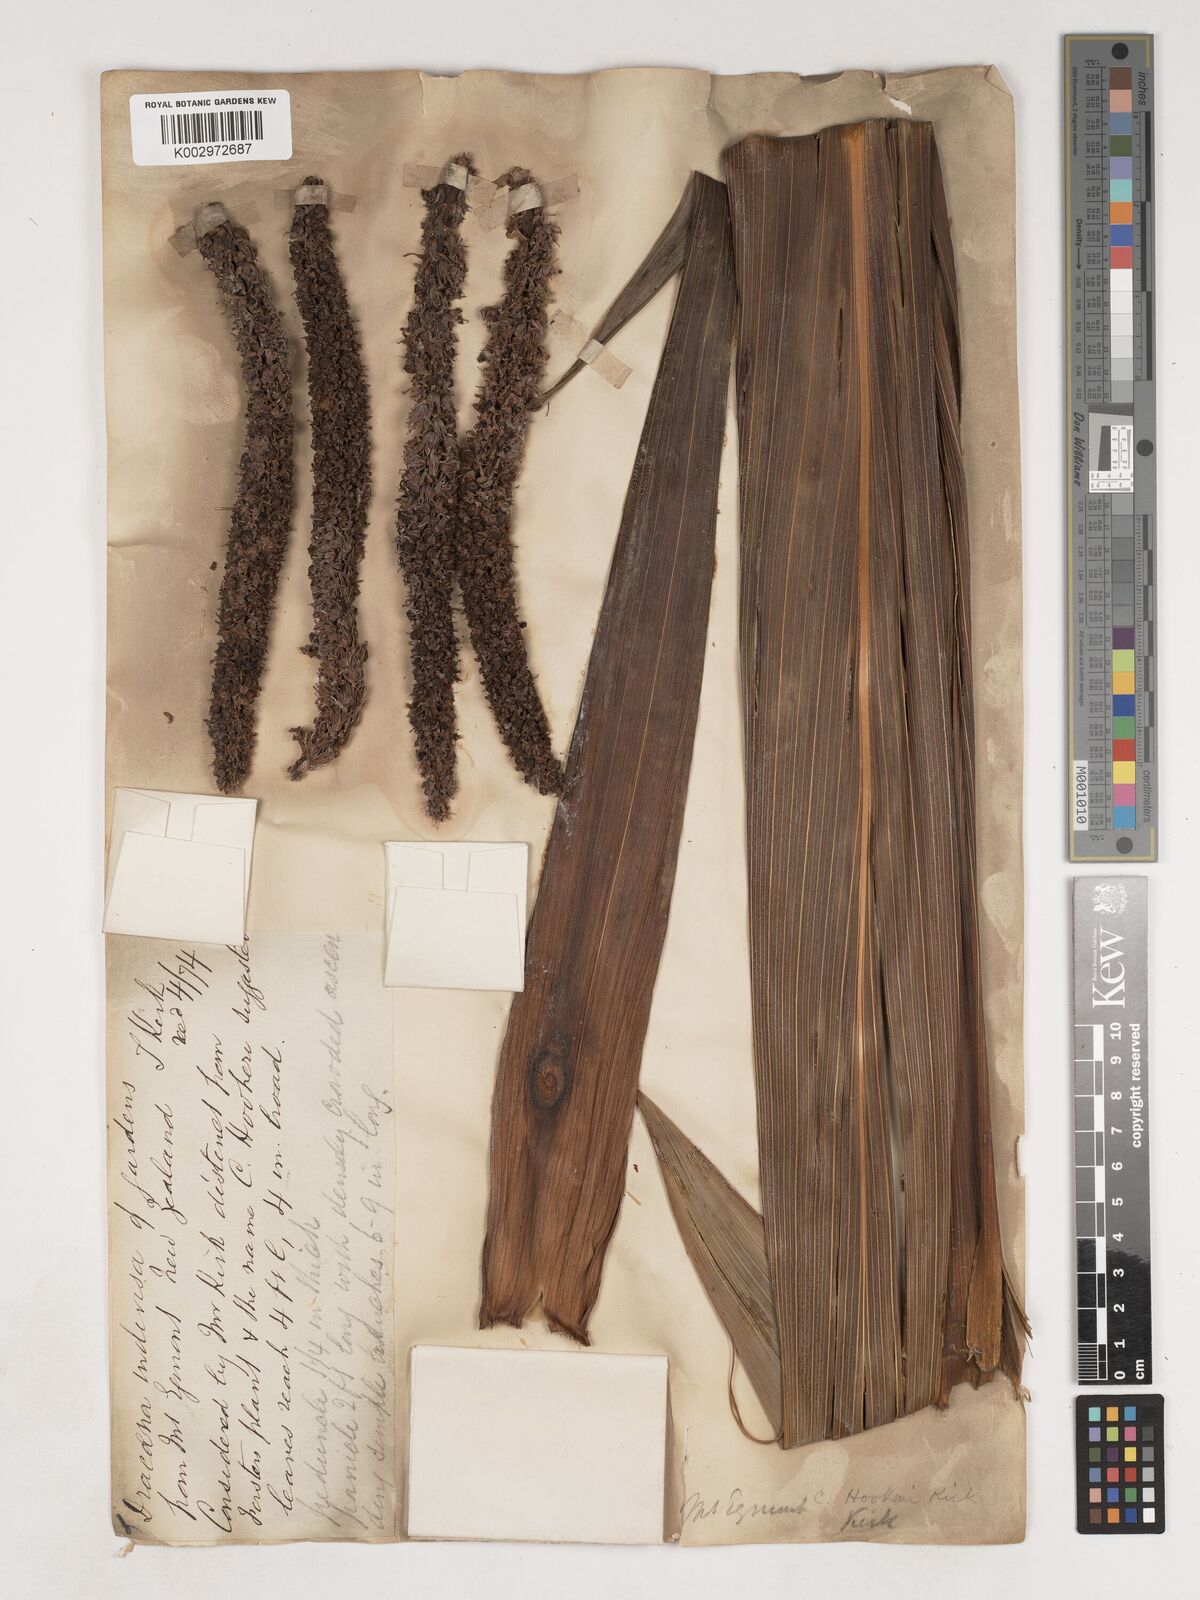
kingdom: Plantae
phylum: Tracheophyta
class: Liliopsida
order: Asparagales
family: Asparagaceae
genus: Cordyline
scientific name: Cordyline
